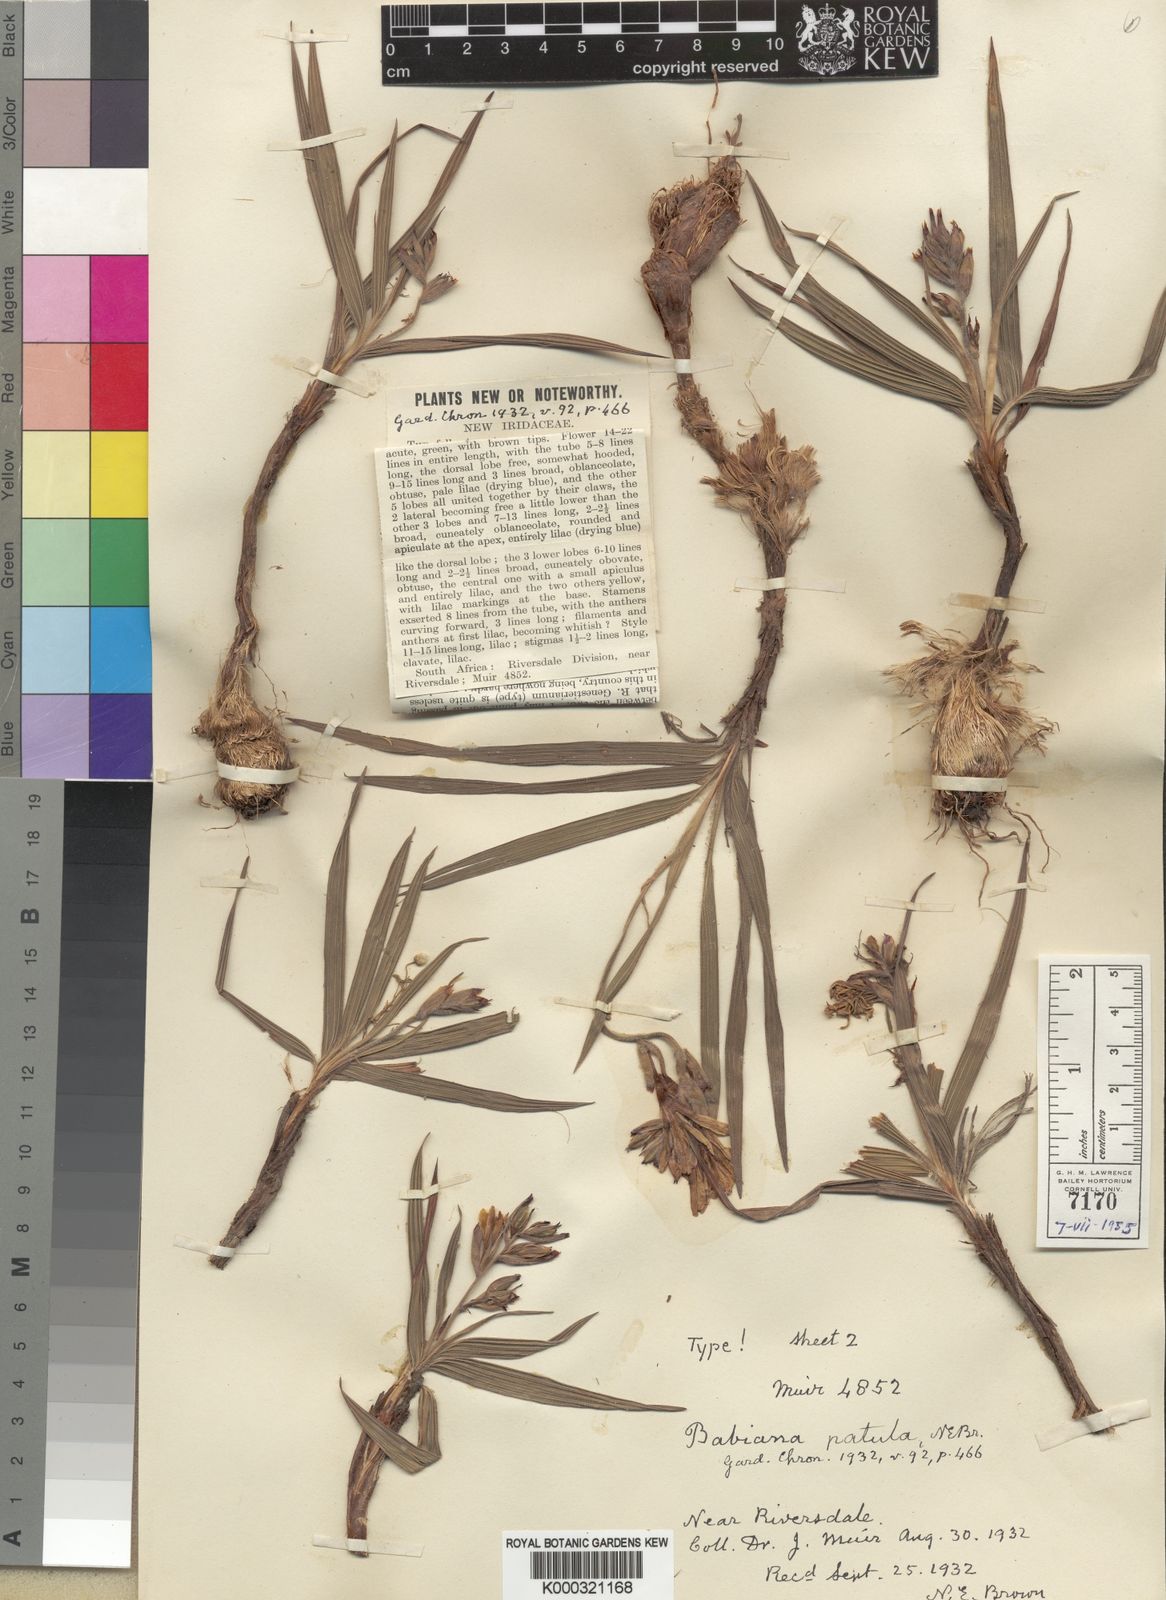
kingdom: Plantae
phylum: Tracheophyta
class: Liliopsida
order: Asparagales
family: Iridaceae
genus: Babiana
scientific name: Babiana patula
